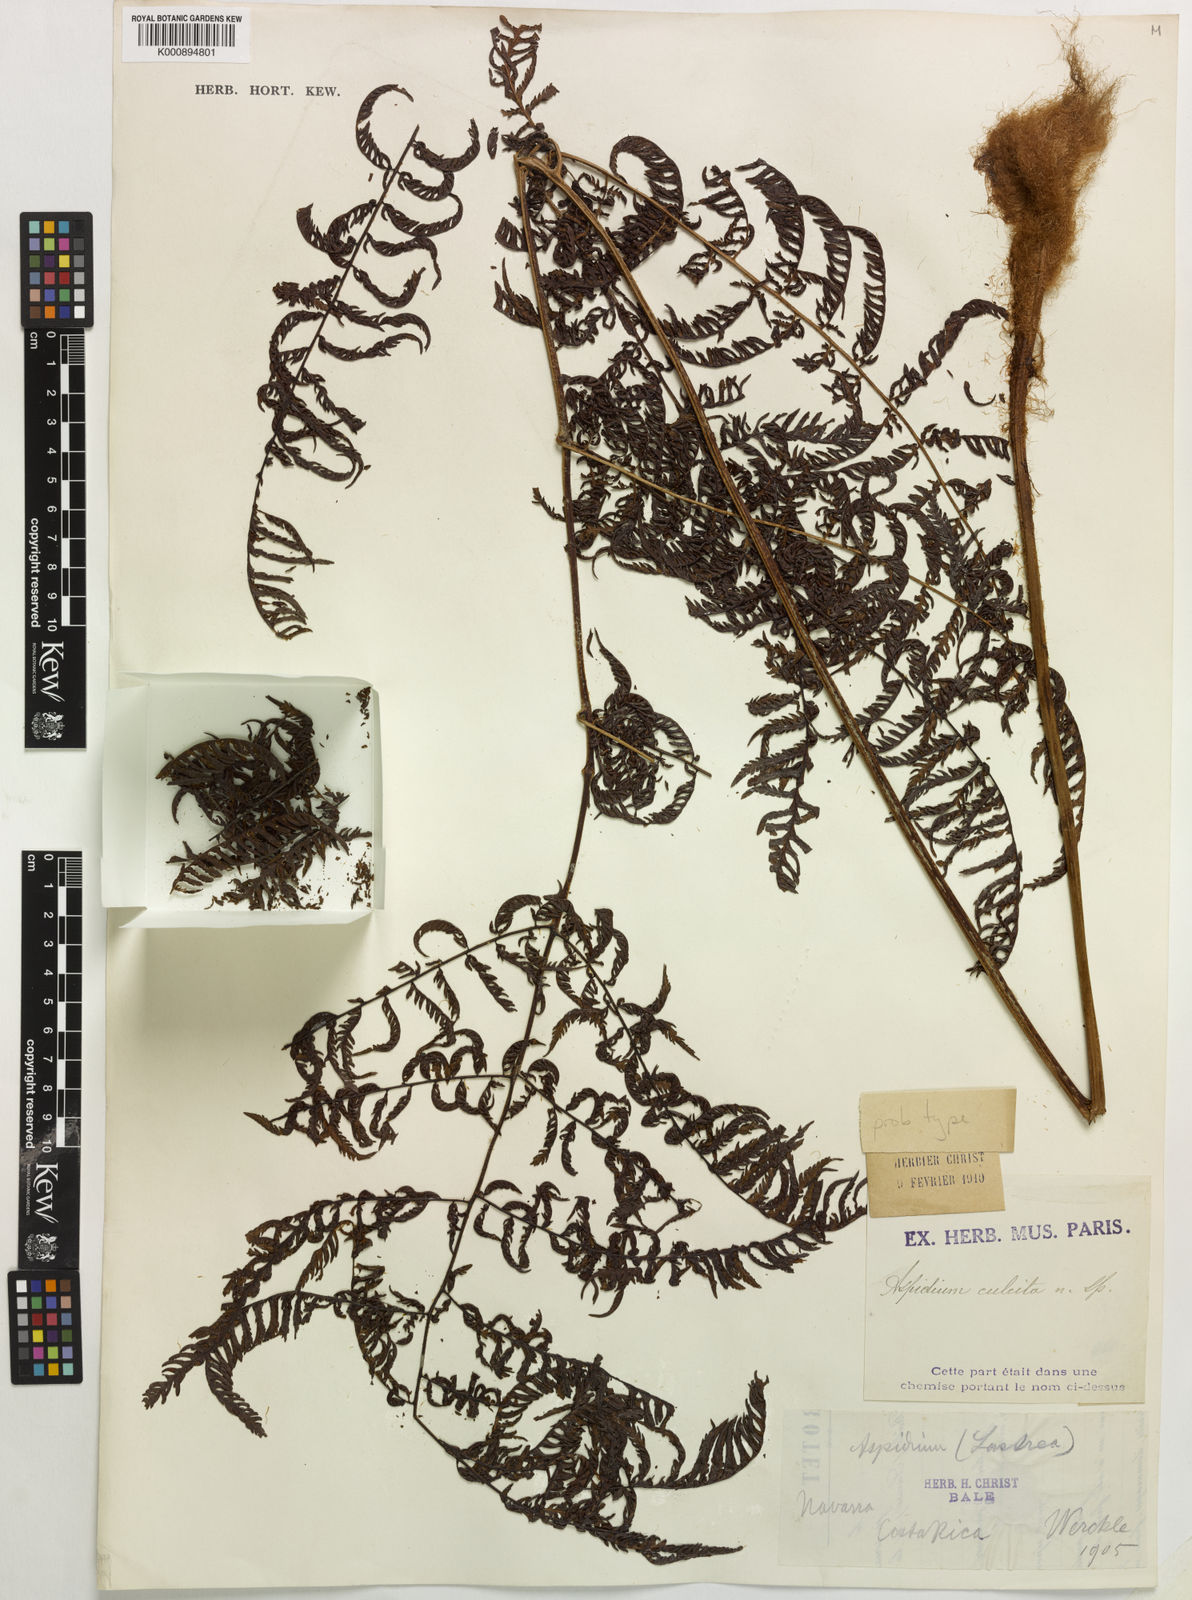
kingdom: Plantae
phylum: Tracheophyta
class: Polypodiopsida
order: Polypodiales
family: Dryopteridaceae
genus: Ctenitis
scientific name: Ctenitis sloanei
